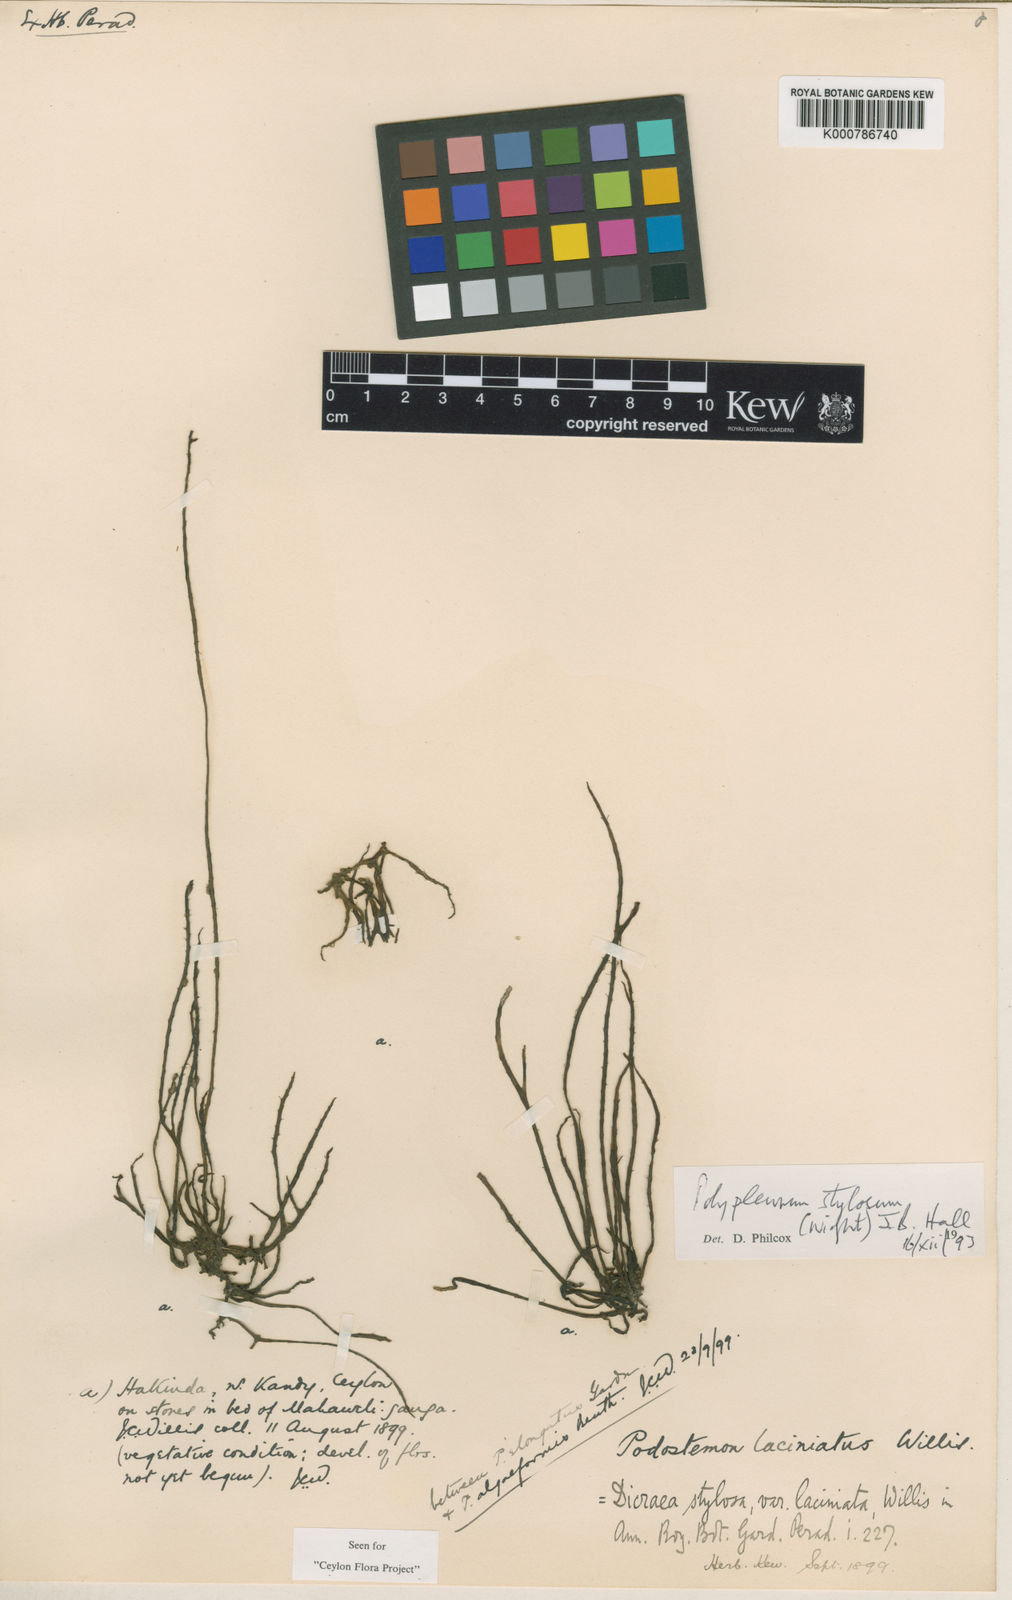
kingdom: Plantae
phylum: Tracheophyta
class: Magnoliopsida
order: Malpighiales
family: Podostemaceae
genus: Polypleurum
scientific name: Polypleurum wallichii
